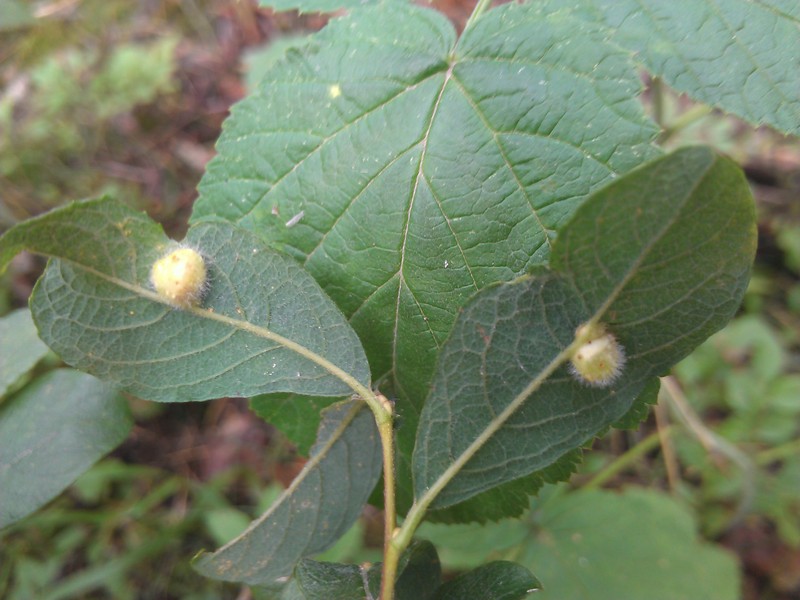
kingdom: Animalia
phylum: Arthropoda
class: Insecta
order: Hymenoptera
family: Tenthredinidae
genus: Pontania
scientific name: Pontania pedunculi
